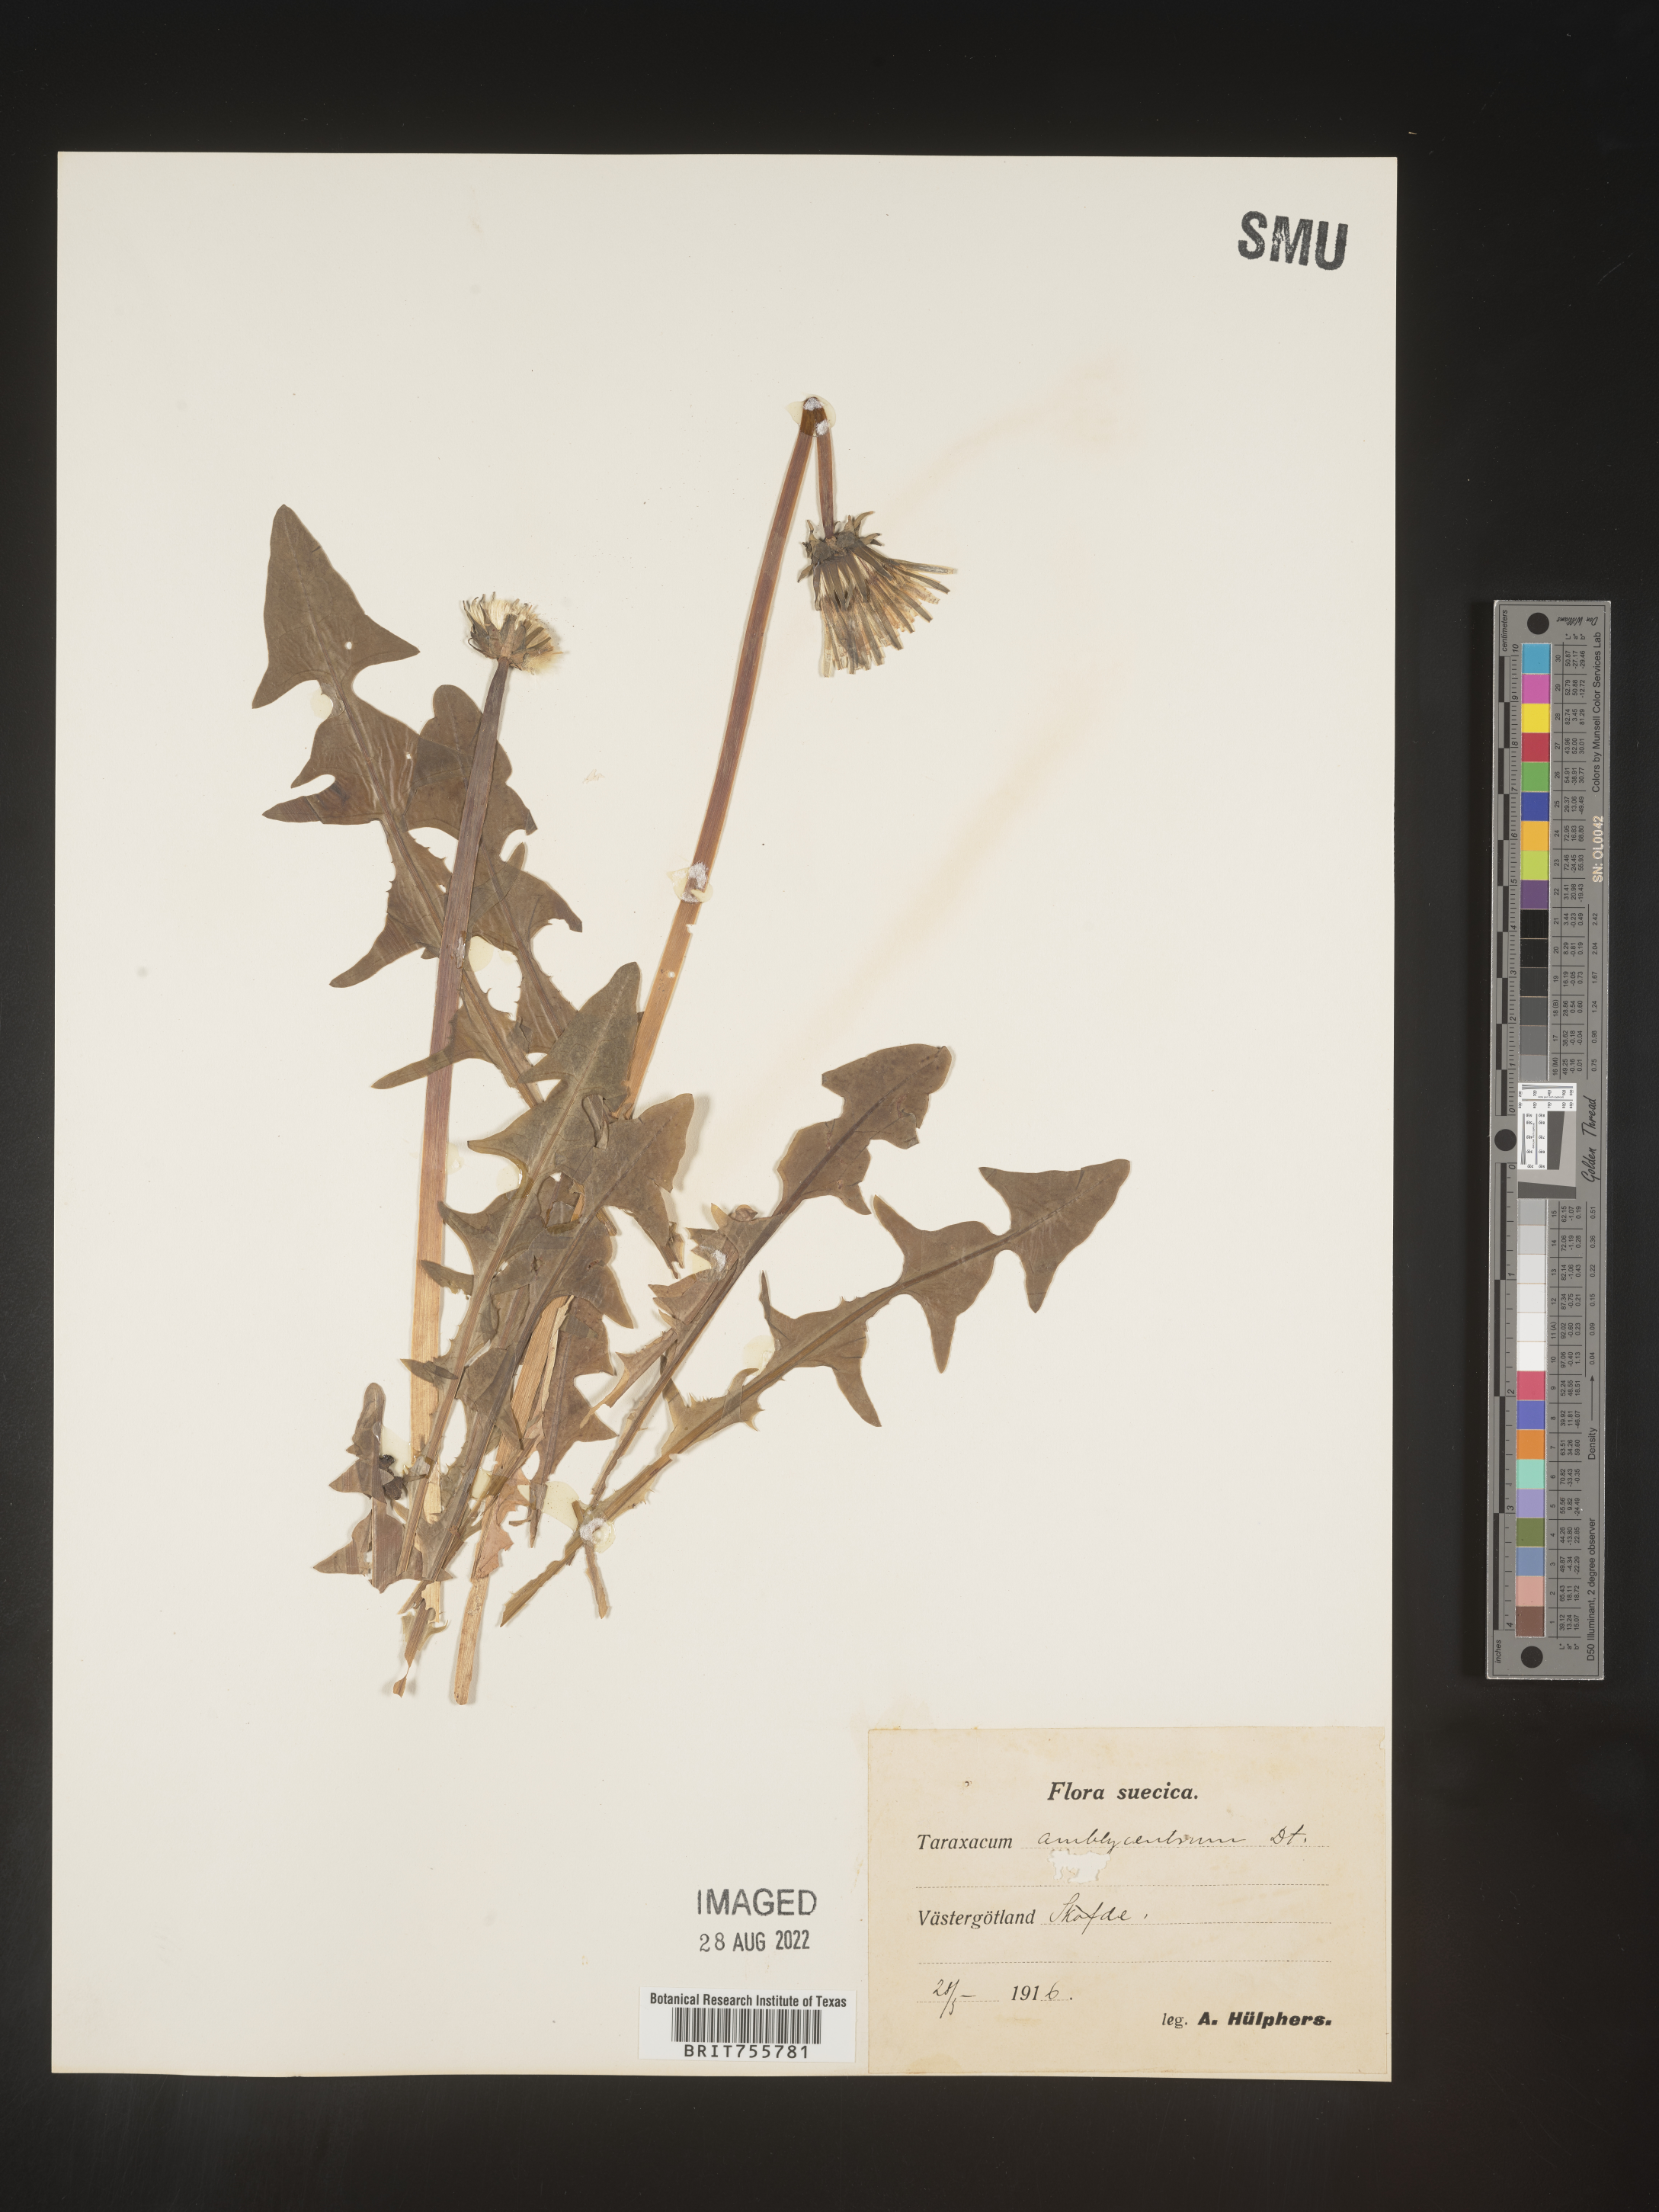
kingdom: Plantae
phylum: Tracheophyta
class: Magnoliopsida
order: Asterales
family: Asteraceae
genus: Taraxacum
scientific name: Taraxacum
